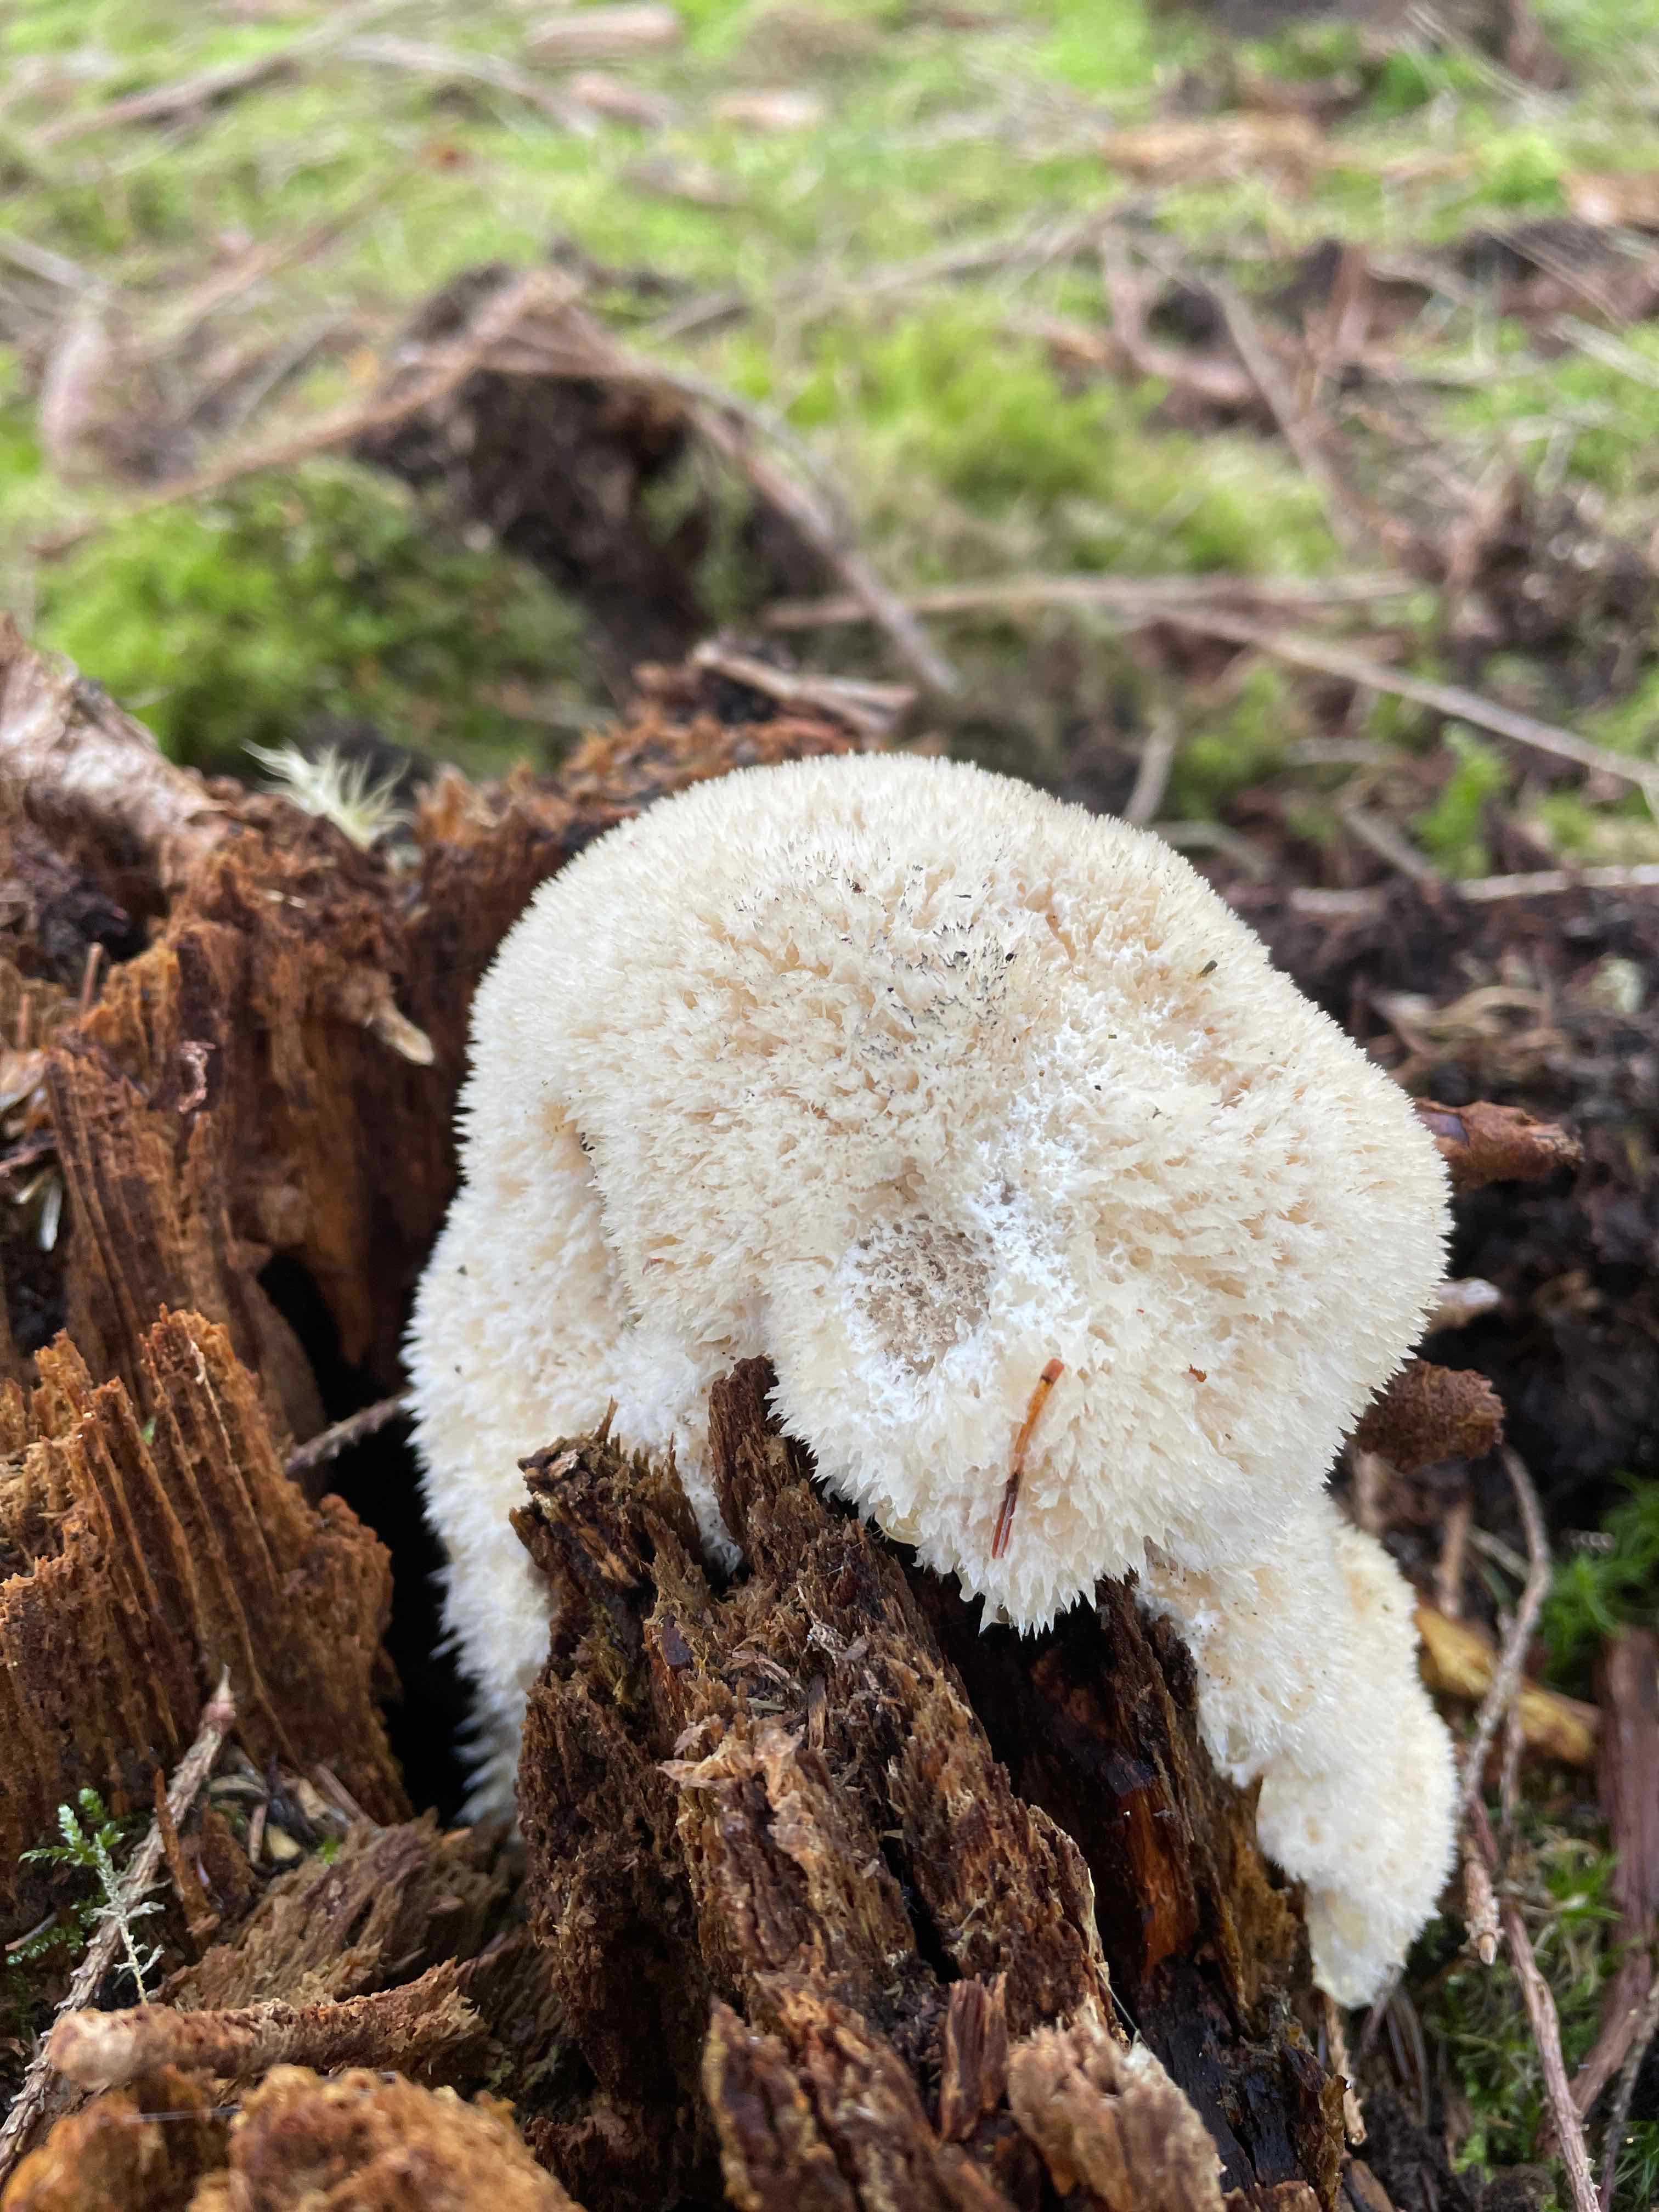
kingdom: Fungi
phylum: Basidiomycota
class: Agaricomycetes
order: Polyporales
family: Dacryobolaceae
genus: Postia
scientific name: Postia ptychogaster
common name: støvende kødporesvamp
